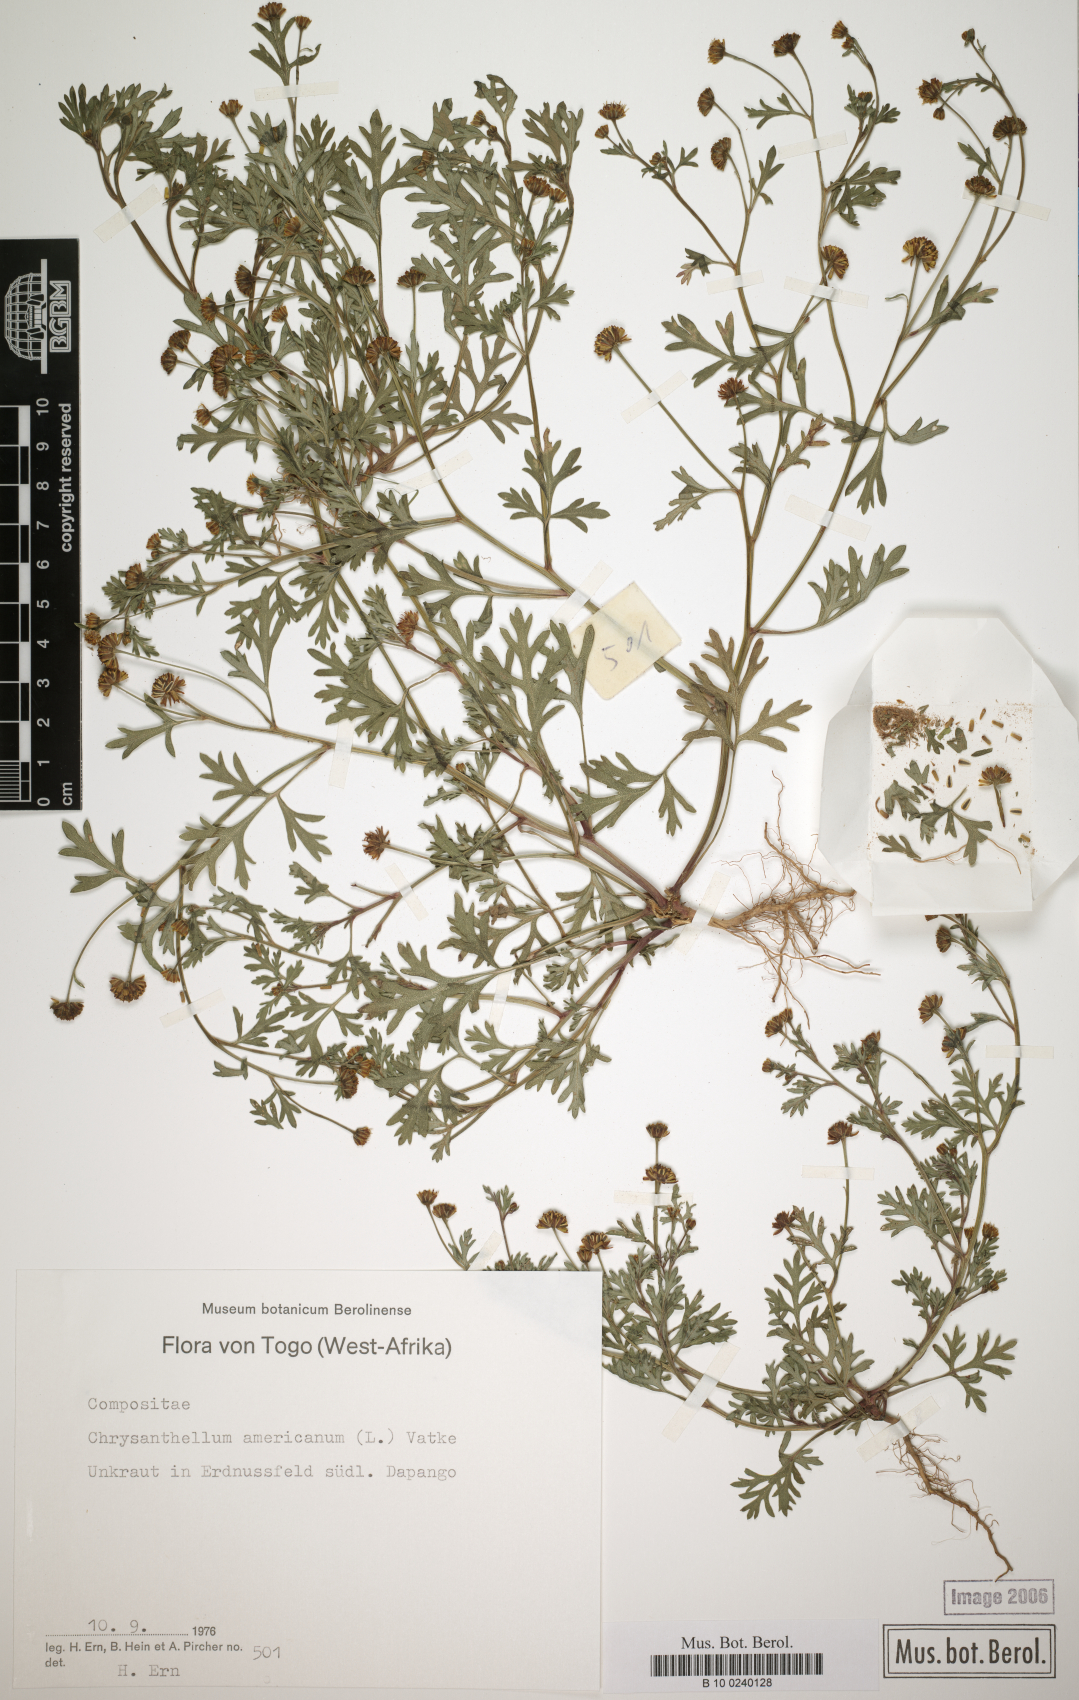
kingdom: Plantae
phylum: Tracheophyta
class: Magnoliopsida
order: Asterales
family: Asteraceae
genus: Chrysanthellum
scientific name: Chrysanthellum americanum
